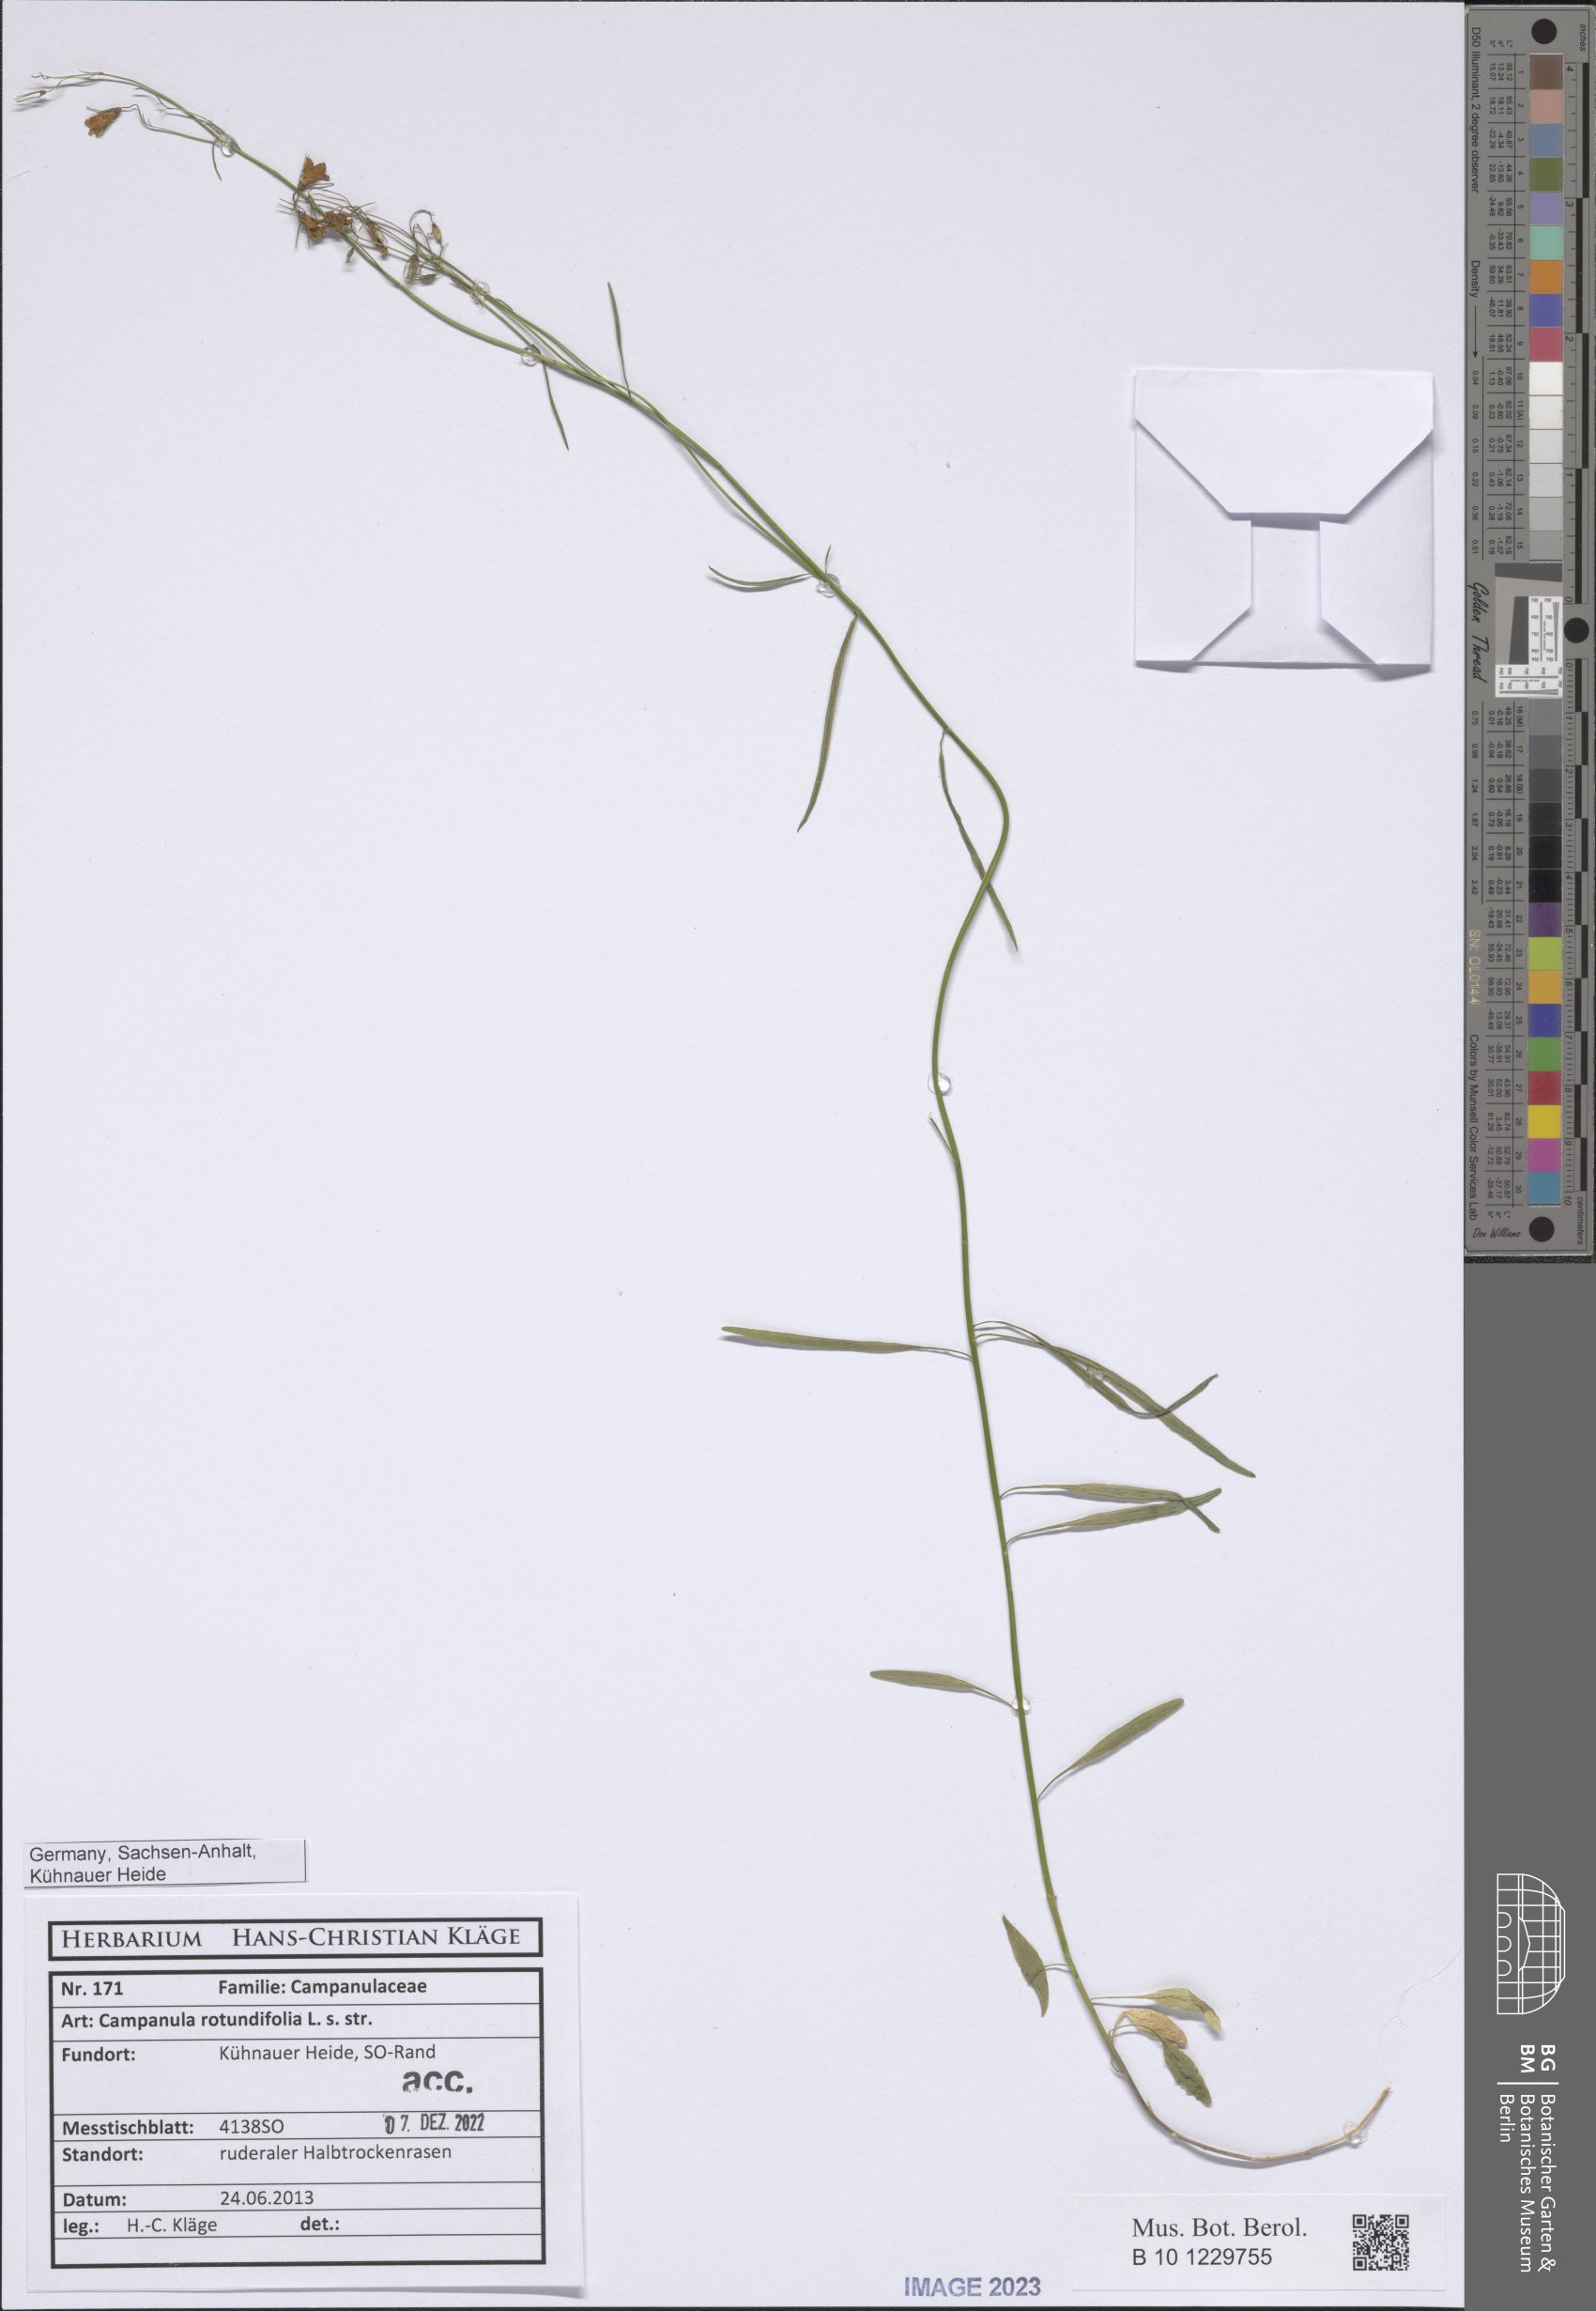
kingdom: Plantae
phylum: Tracheophyta
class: Magnoliopsida
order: Asterales
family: Campanulaceae
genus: Campanula
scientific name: Campanula rotundifolia
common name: Harebell
